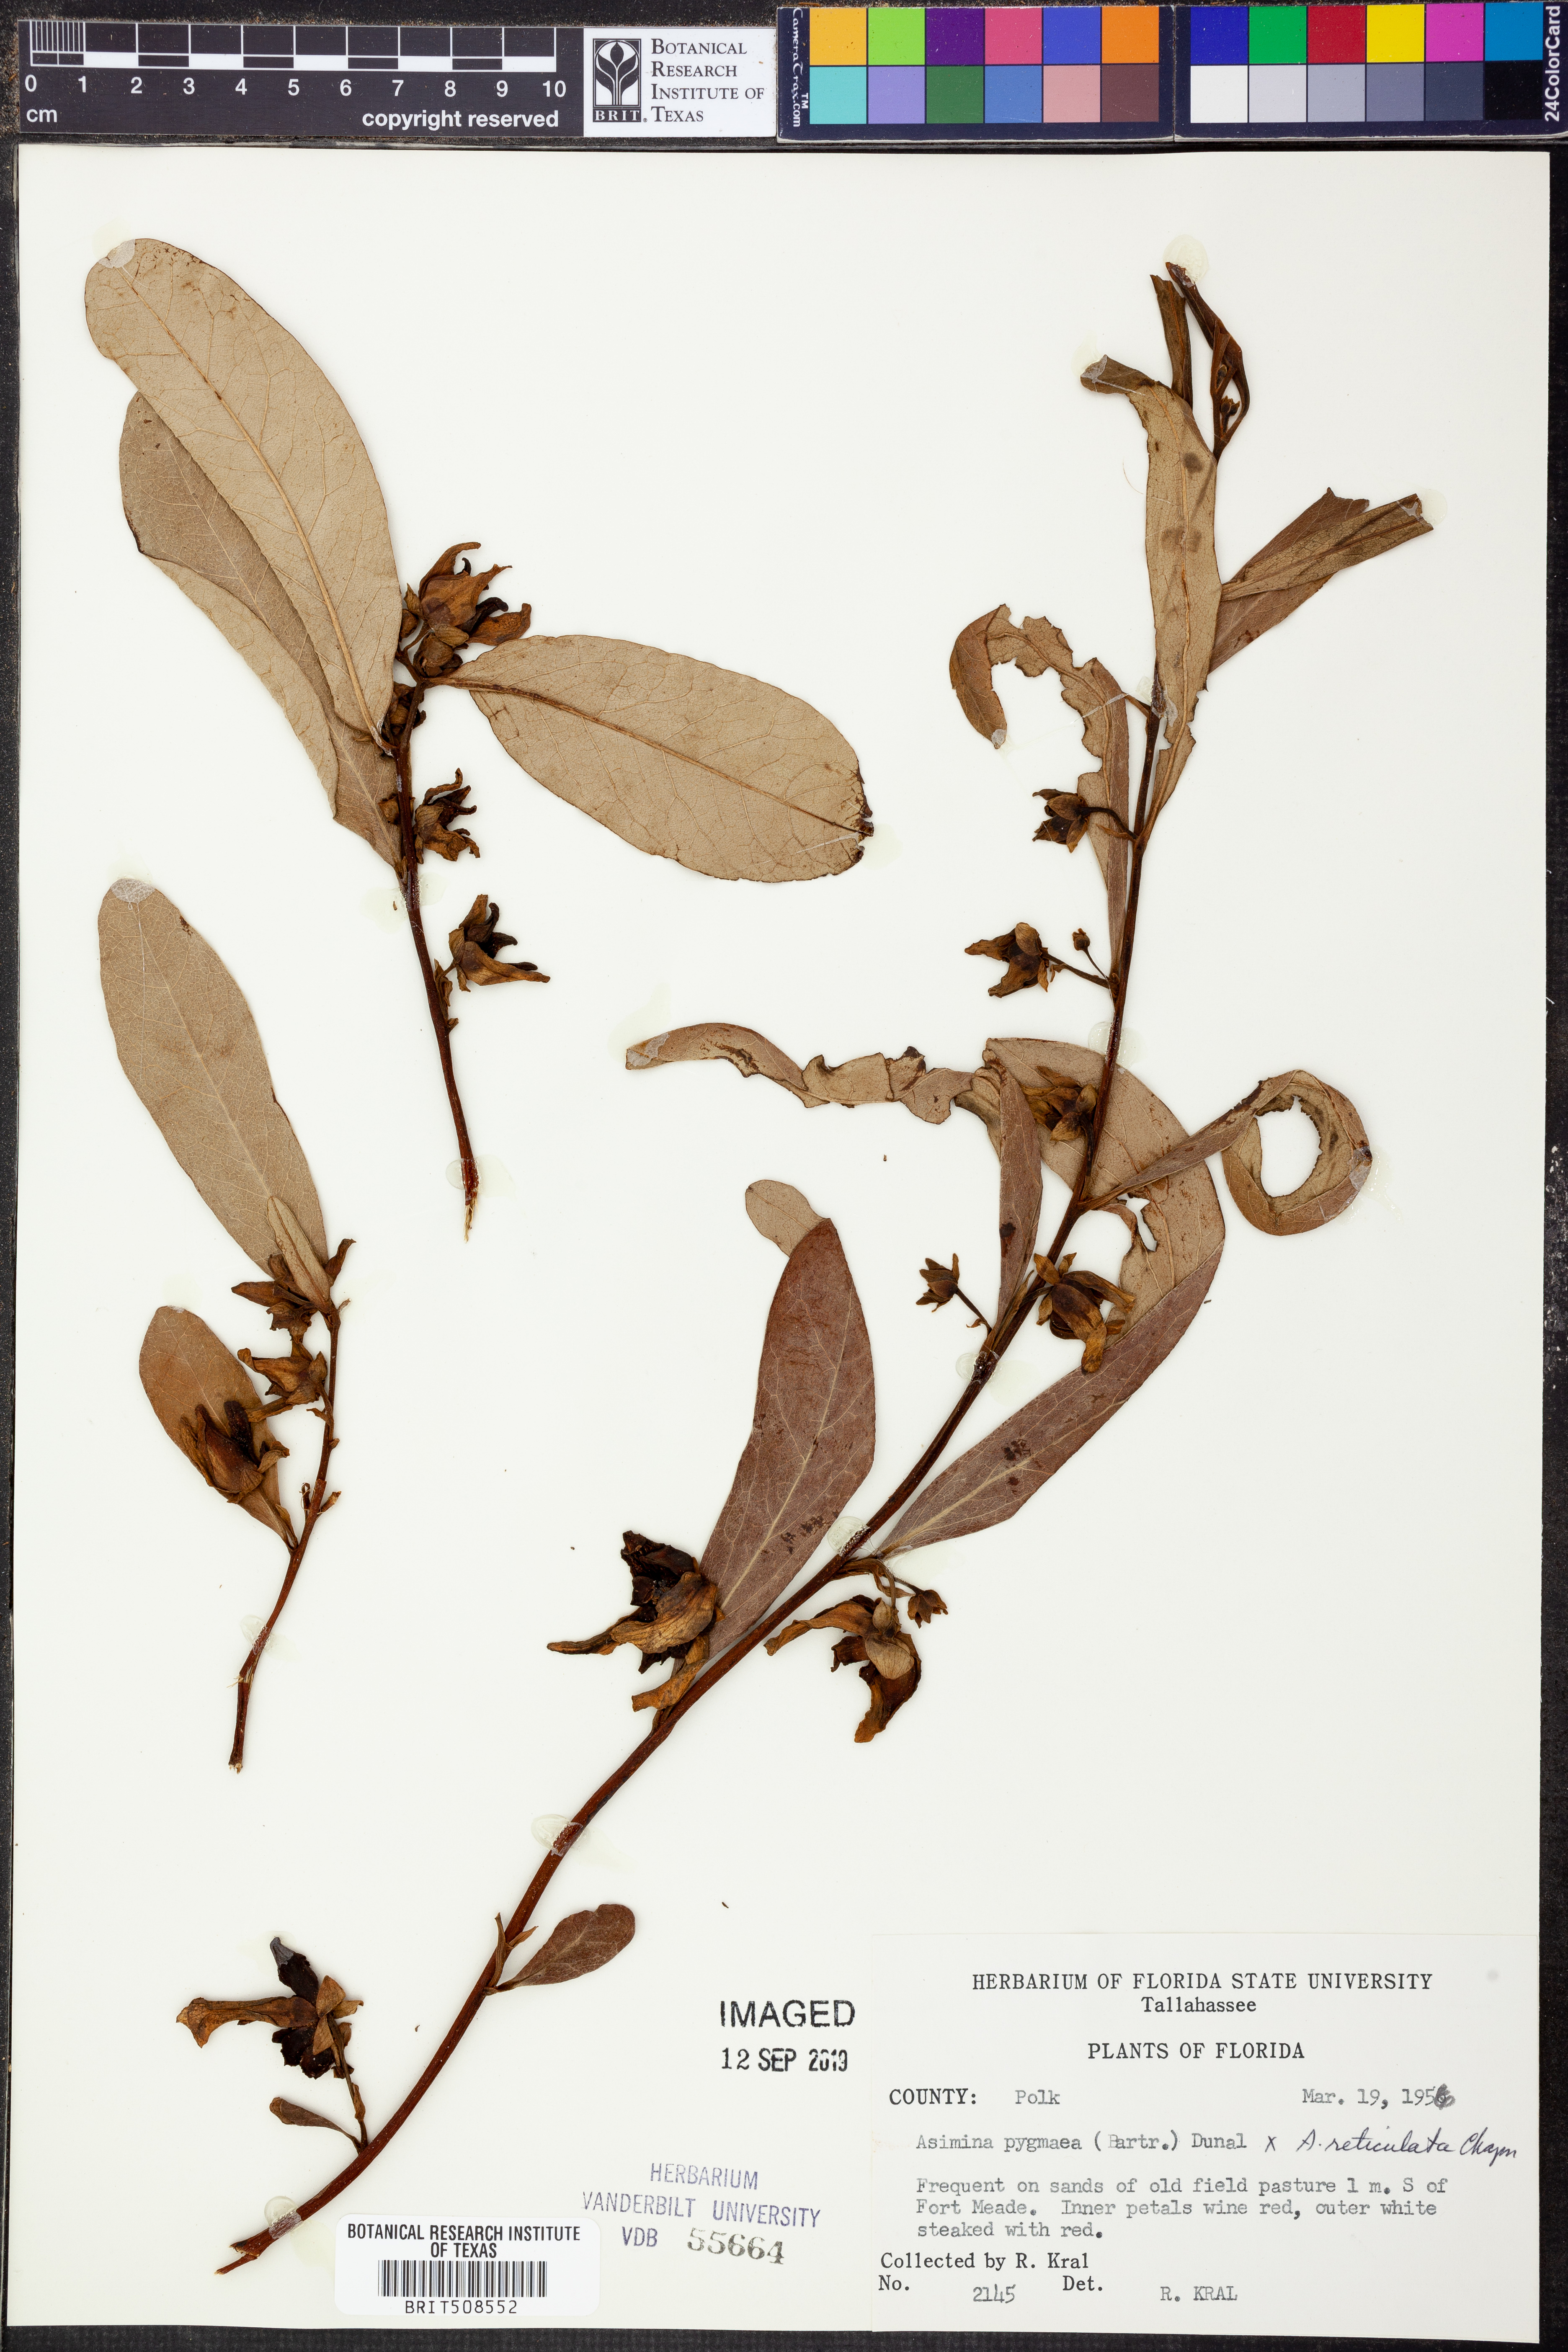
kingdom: Plantae
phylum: Tracheophyta
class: Magnoliopsida
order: Magnoliales
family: Annonaceae
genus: Asimina
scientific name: Asimina pygmaea
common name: Dwarf pawpaw
